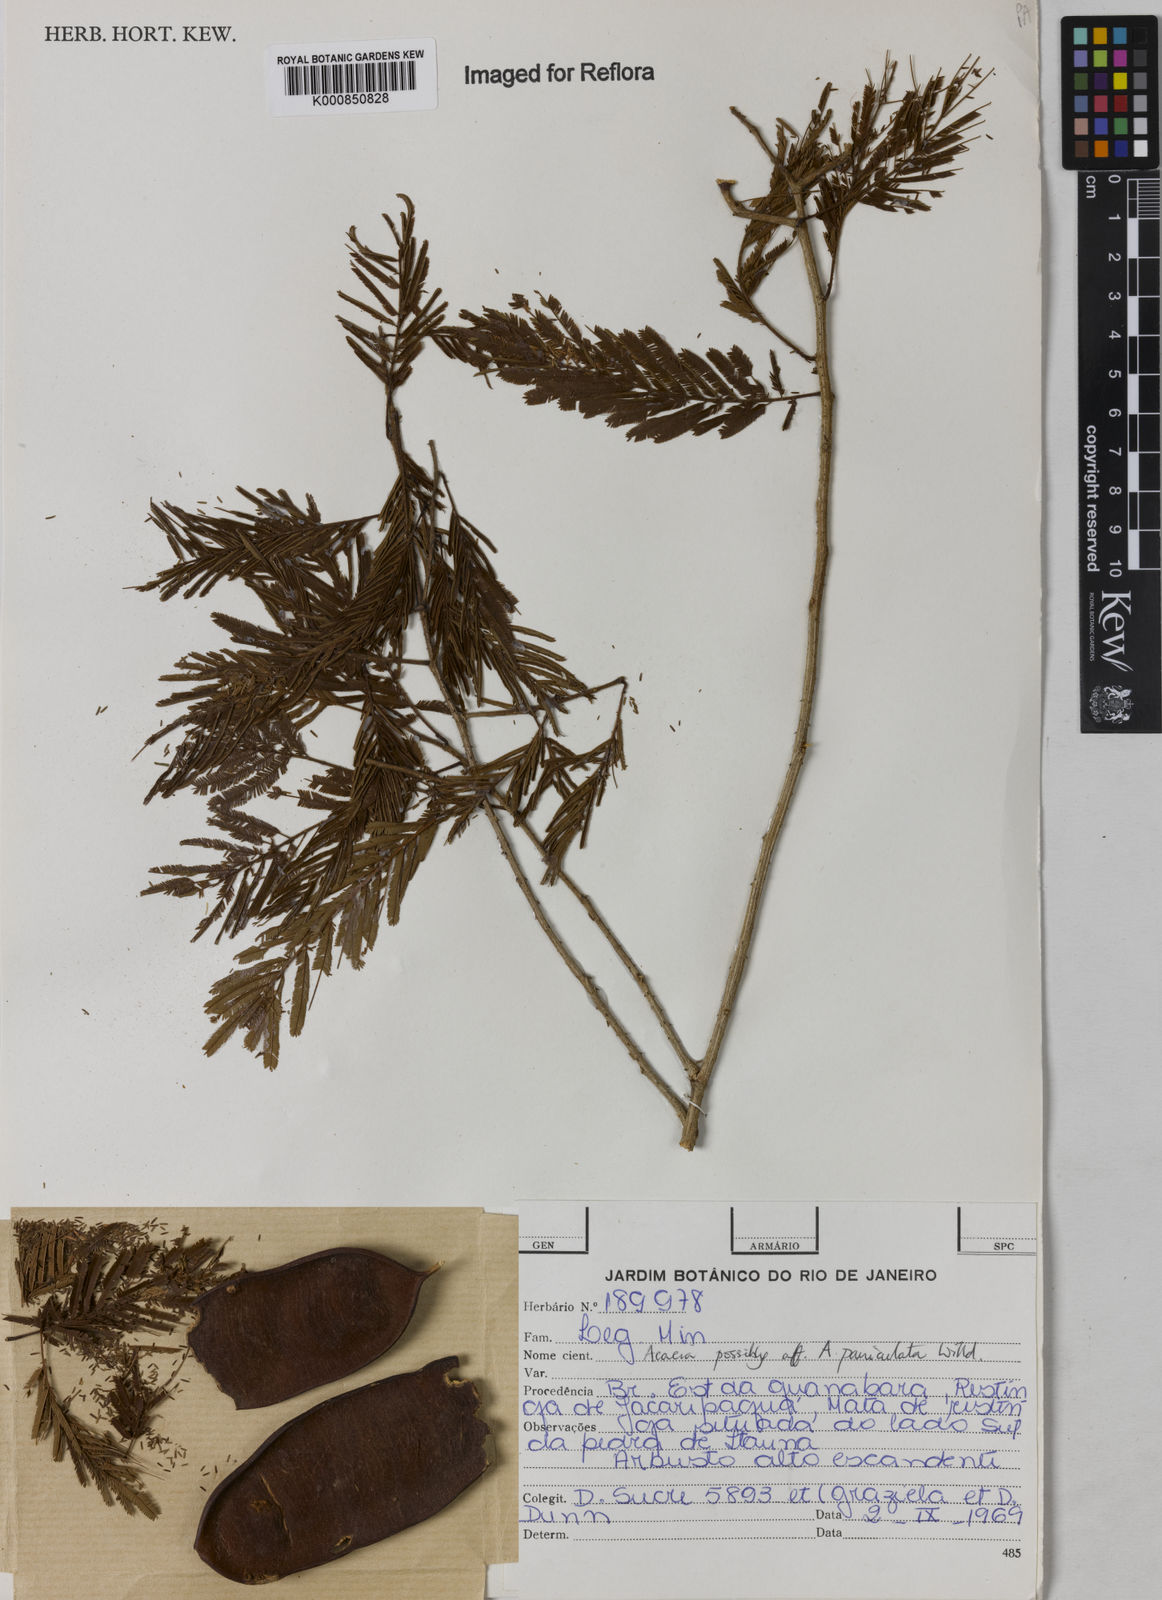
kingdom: Plantae
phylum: Tracheophyta
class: Magnoliopsida
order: Fabales
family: Fabaceae
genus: Senegalia
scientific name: Senegalia tenuifolia
